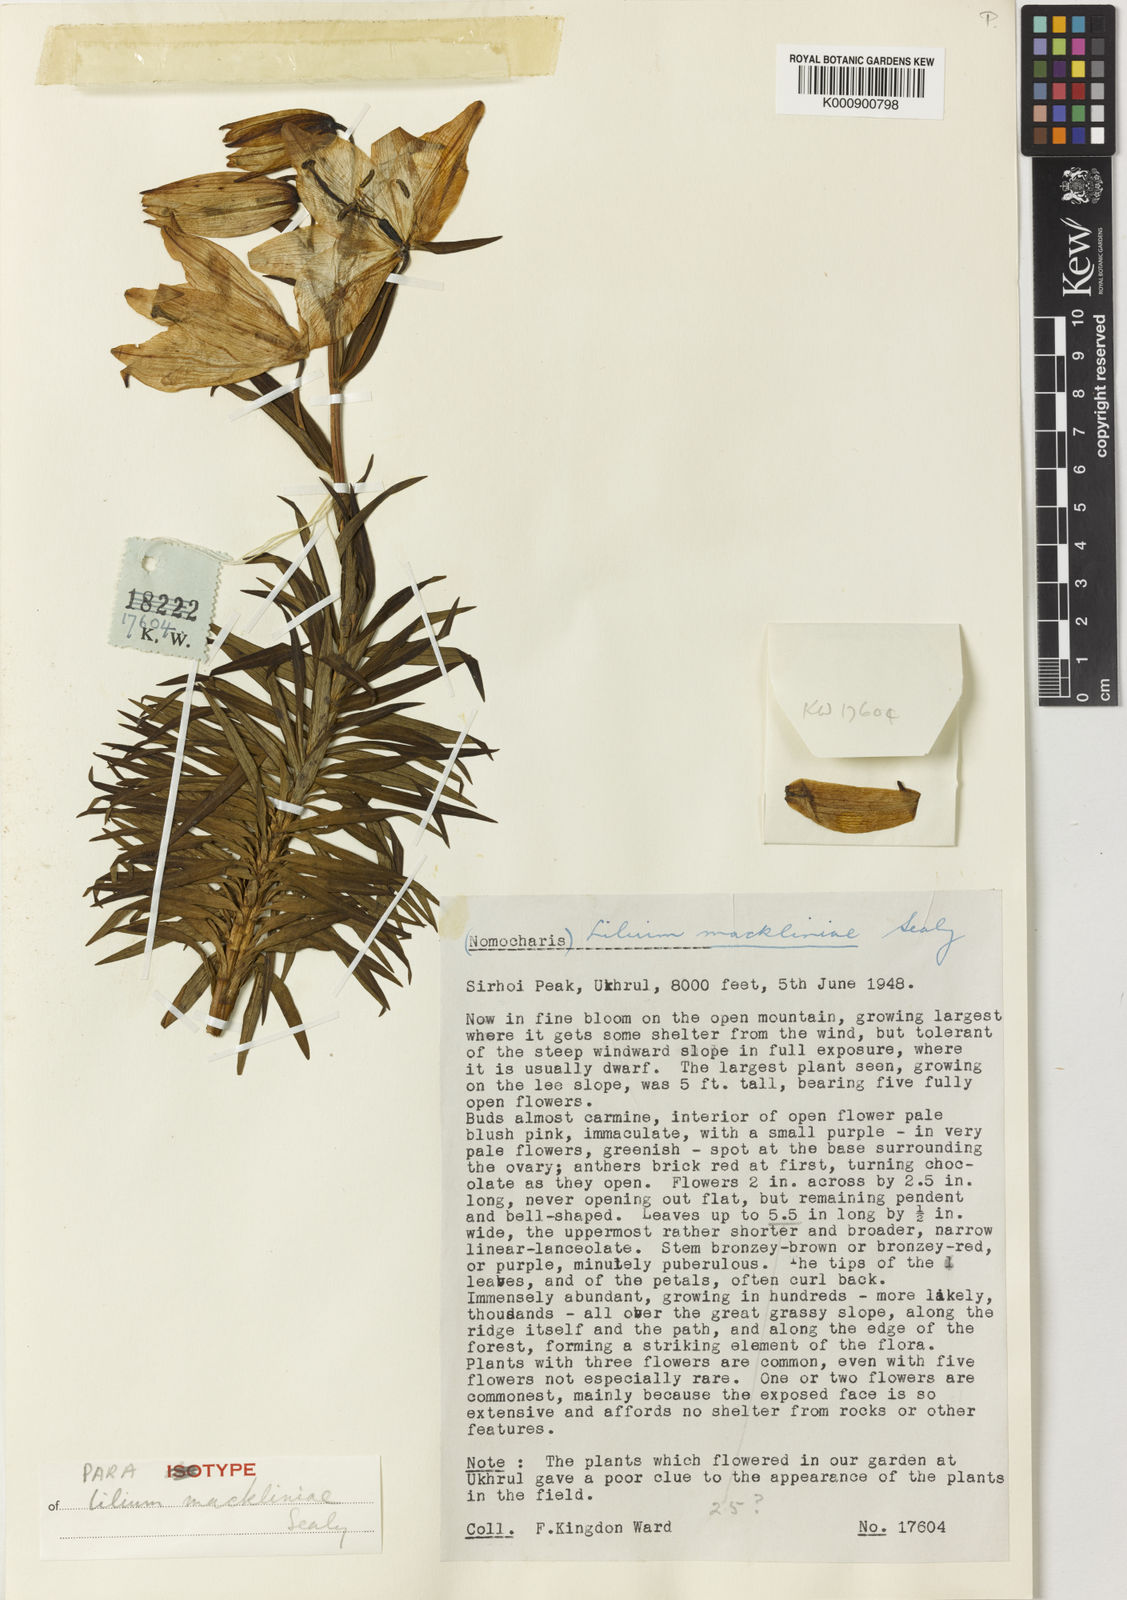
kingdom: Plantae
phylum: Tracheophyta
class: Liliopsida
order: Liliales
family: Liliaceae
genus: Lilium
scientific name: Lilium mackliniae
